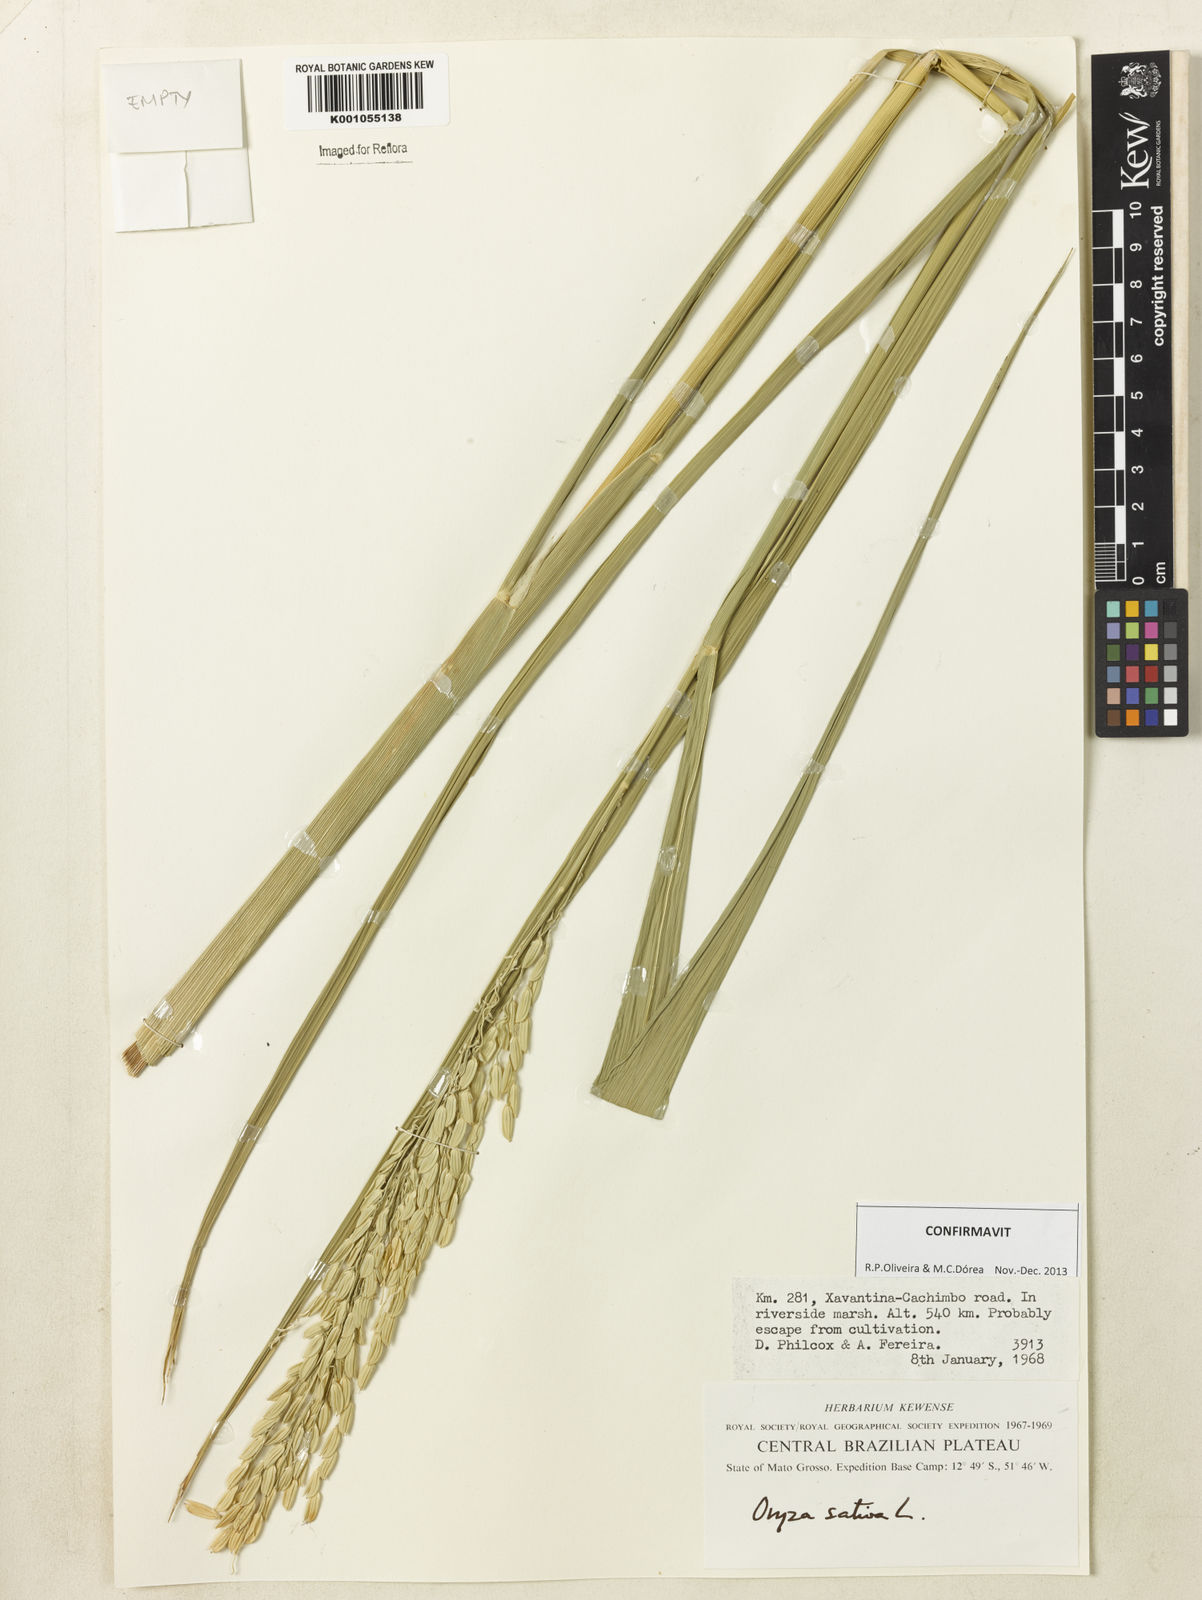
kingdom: Plantae
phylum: Tracheophyta
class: Liliopsida
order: Poales
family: Poaceae
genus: Oryza
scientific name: Oryza sativa
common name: Rice
